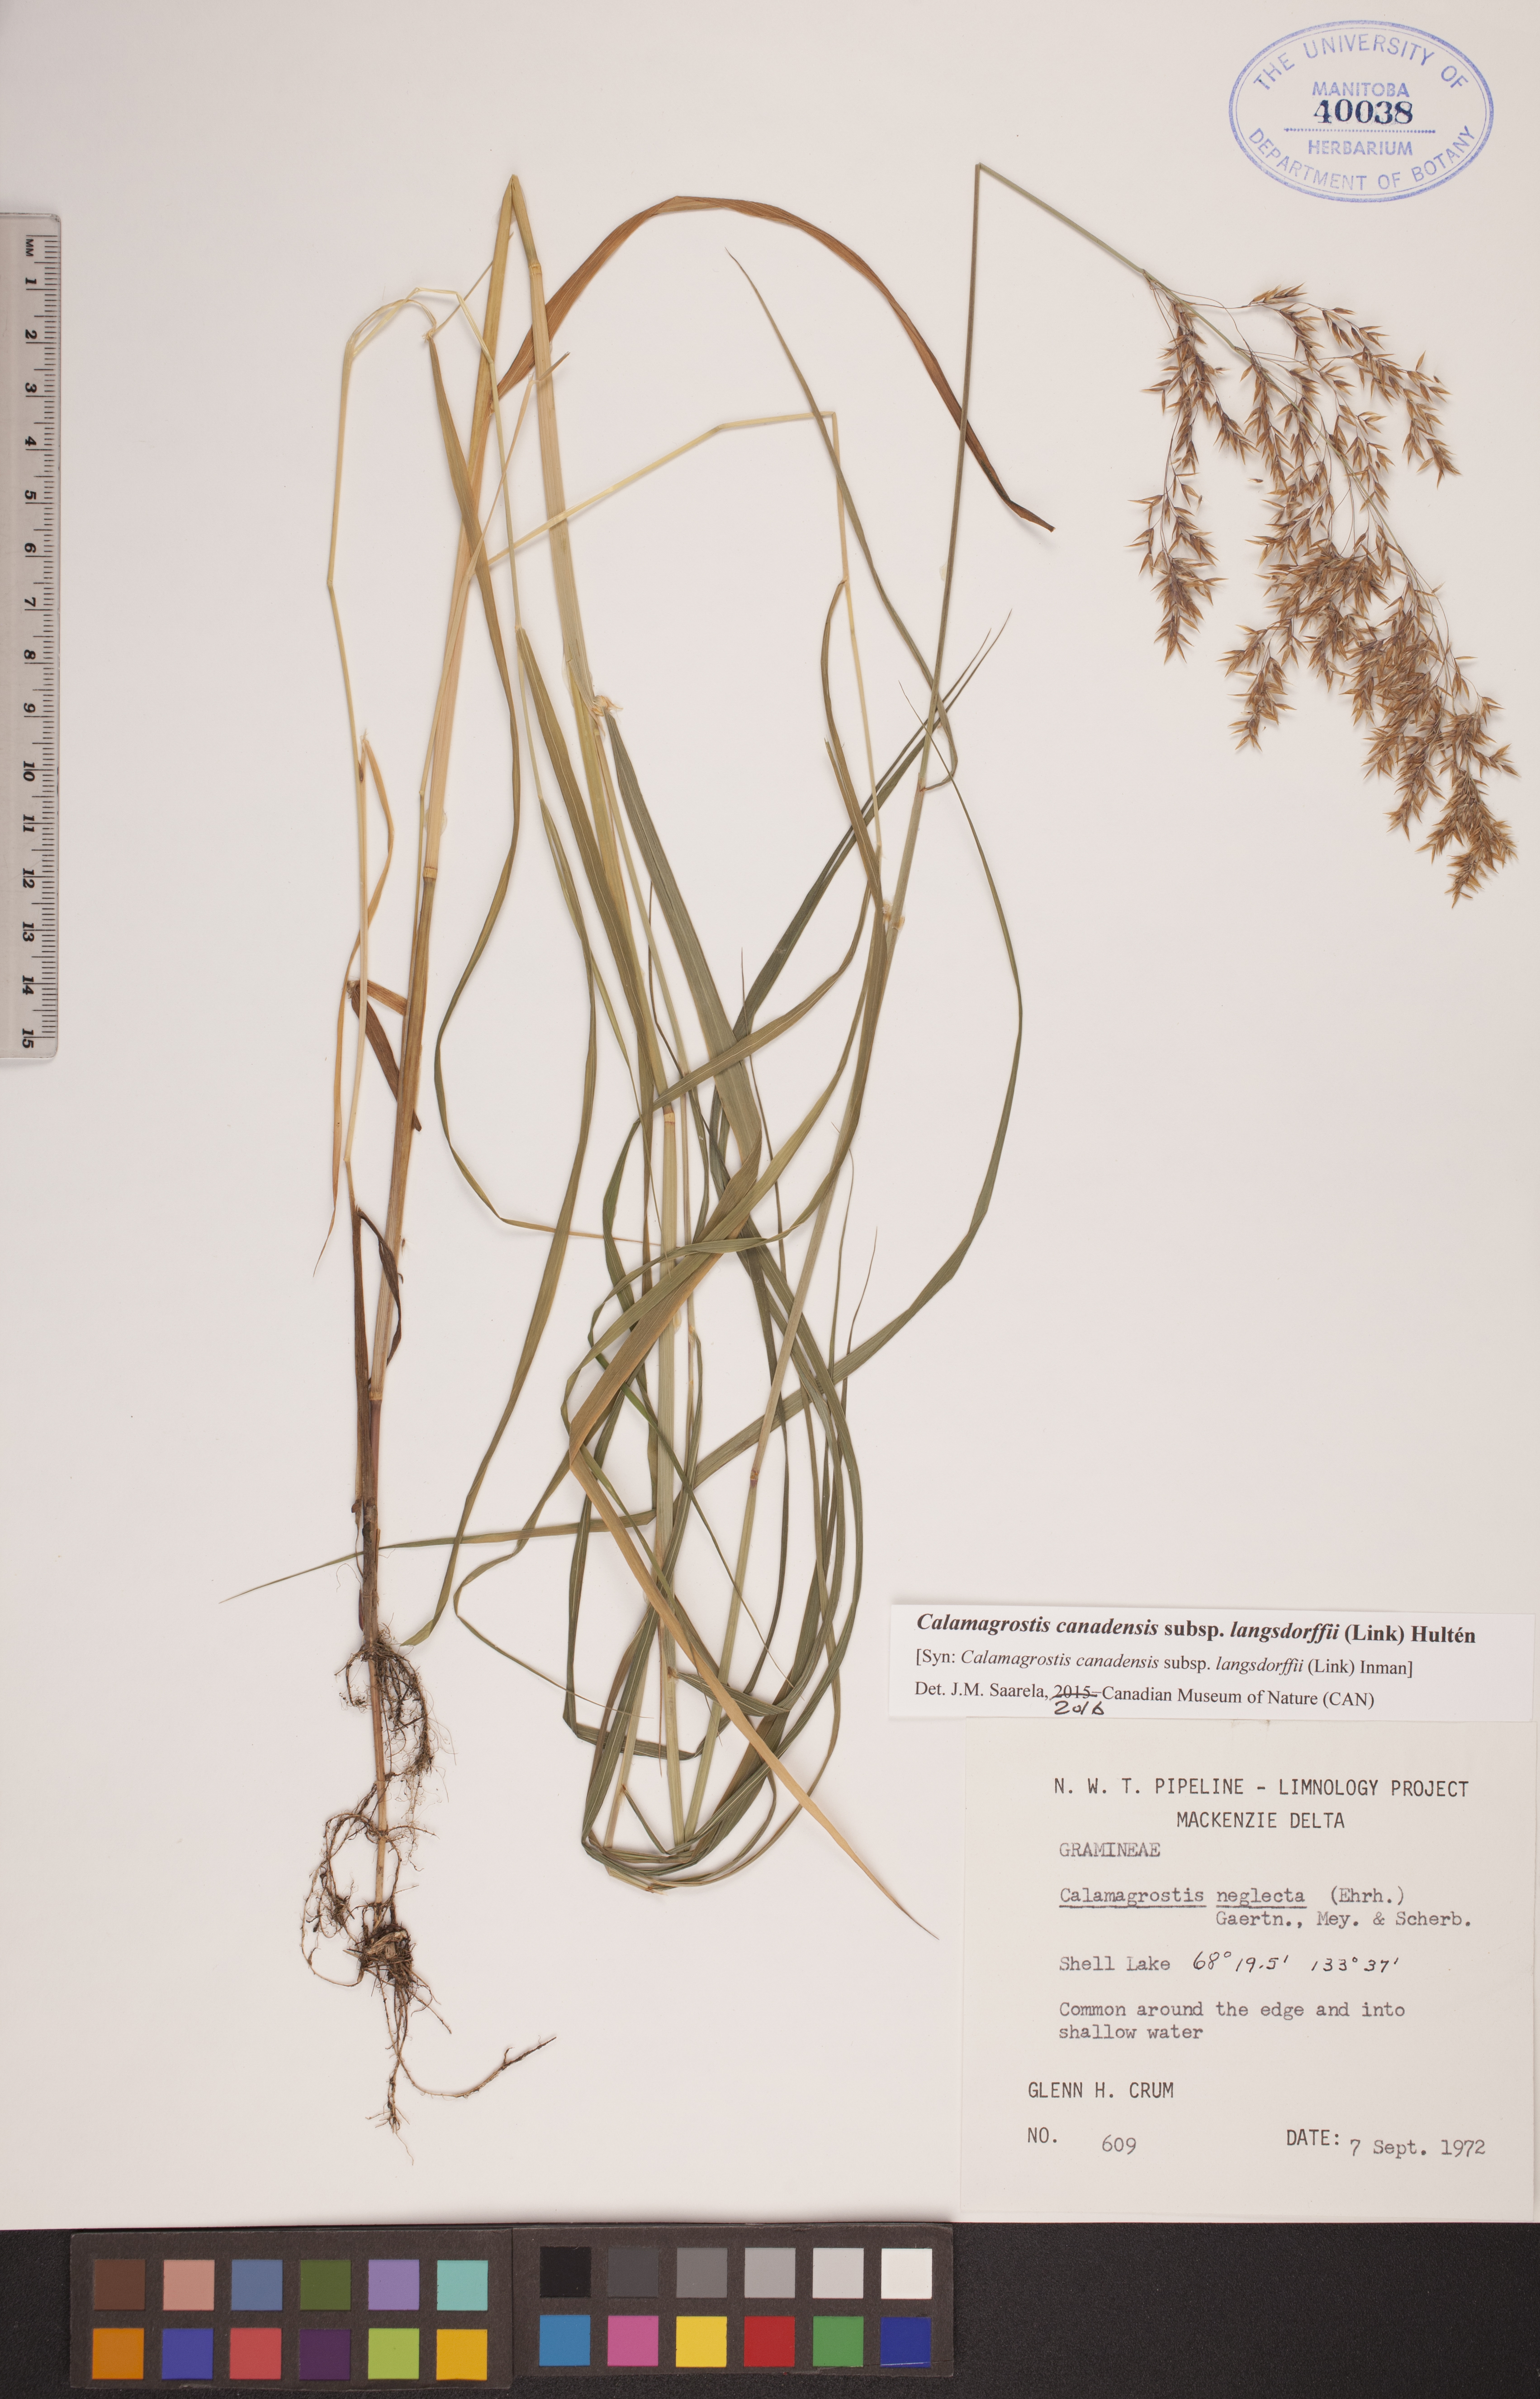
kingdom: Plantae
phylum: Tracheophyta
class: Liliopsida
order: Poales
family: Poaceae
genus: Calamagrostis
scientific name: Calamagrostis purpurea
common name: Scandinavian small-reed
